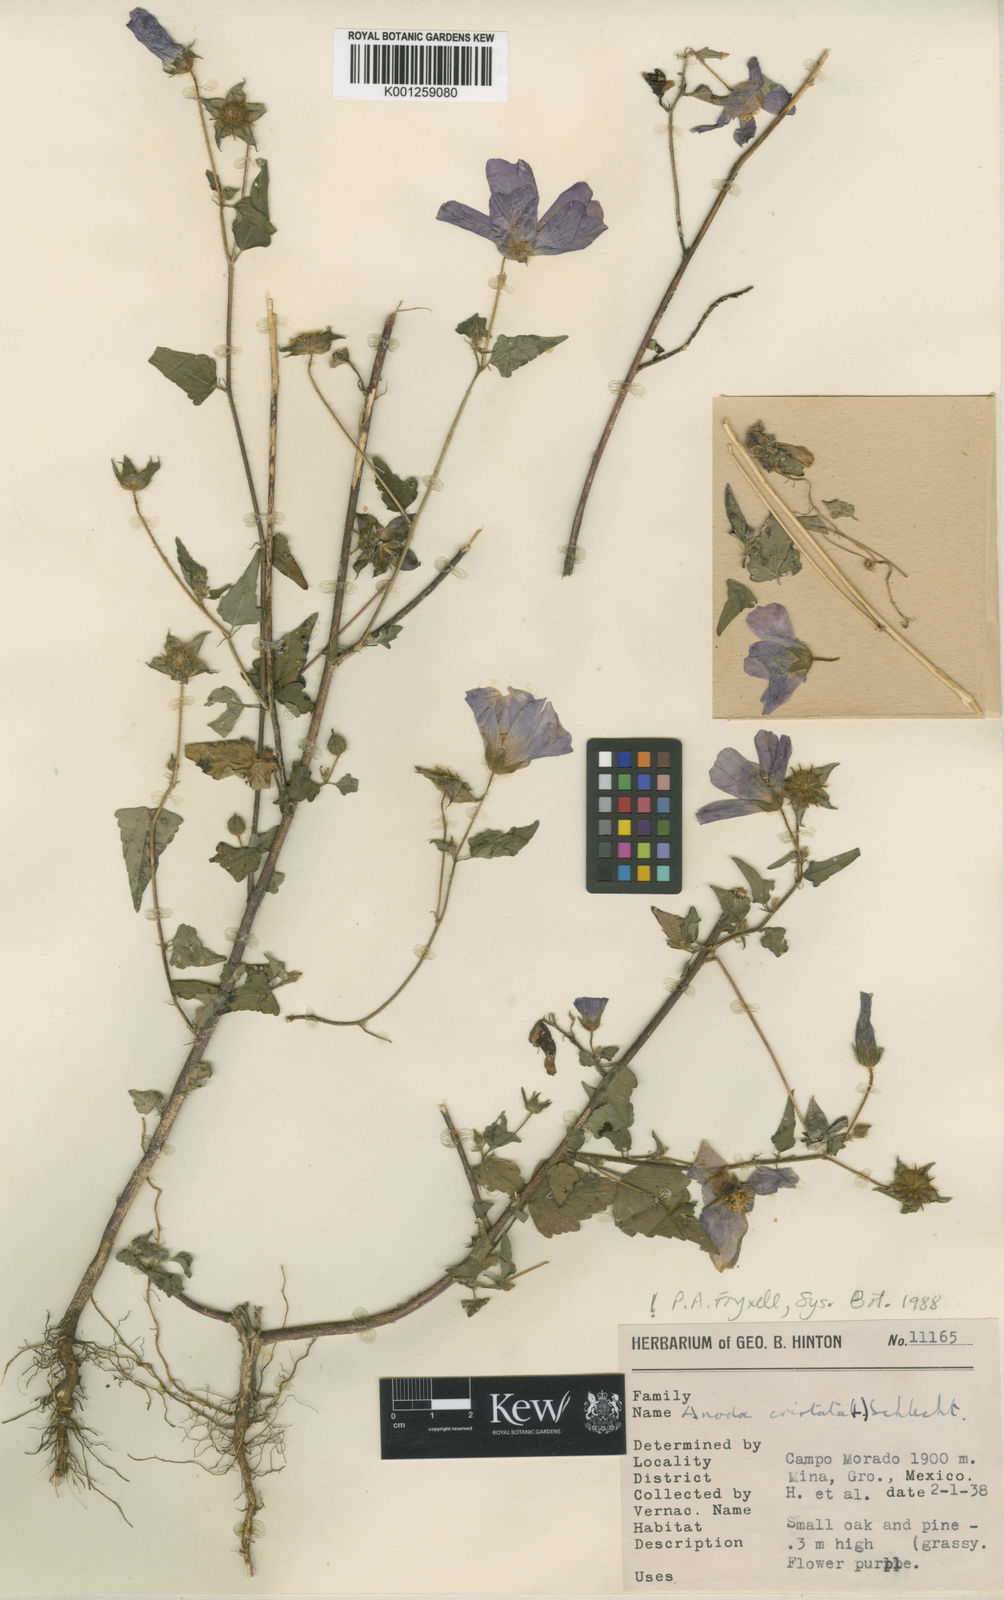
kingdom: Plantae
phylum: Tracheophyta
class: Magnoliopsida
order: Malvales
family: Malvaceae
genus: Anoda
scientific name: Anoda cristata
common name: Spurred anoda
